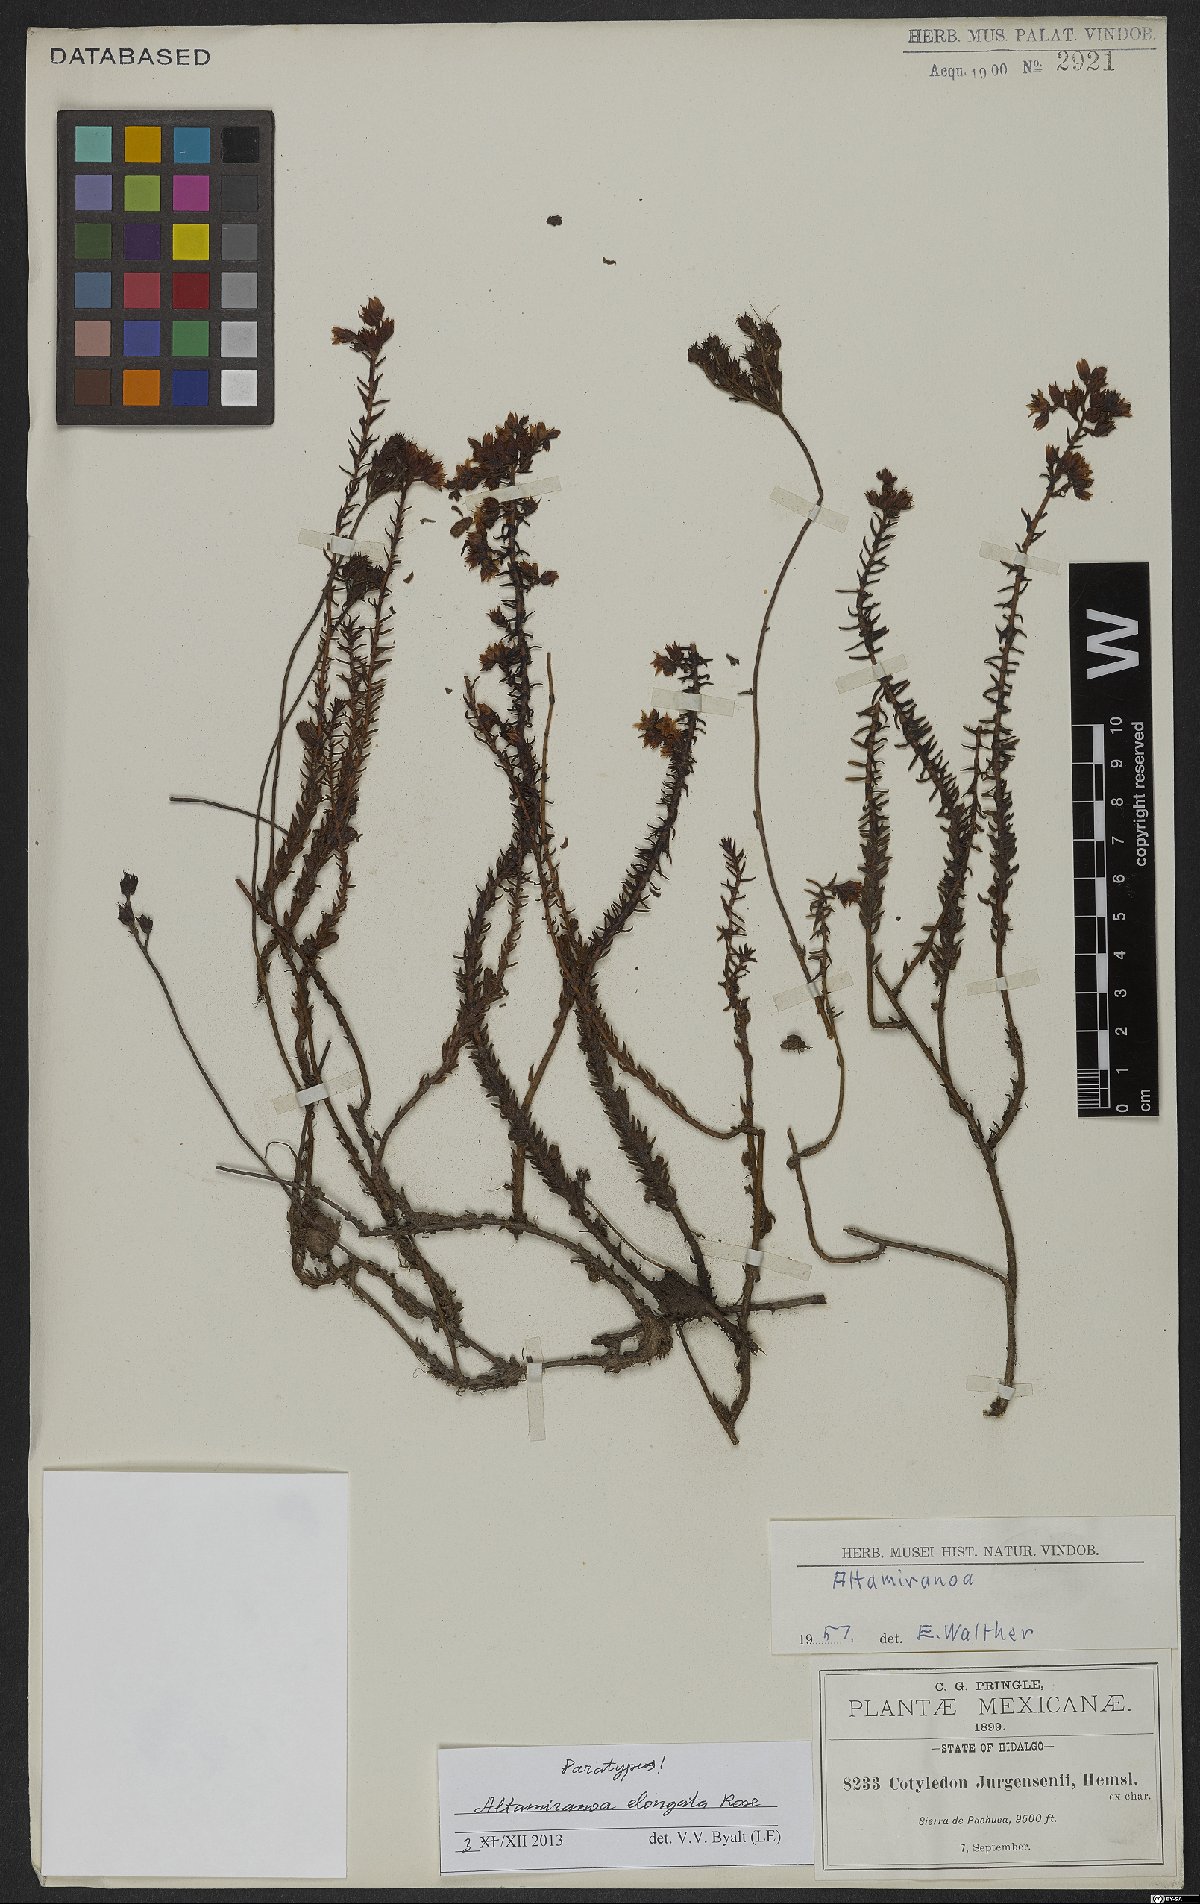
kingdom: Plantae
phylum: Tracheophyta
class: Magnoliopsida
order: Saxifragales
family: Crassulaceae
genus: Sedum
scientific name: Sedum jurgensenii
